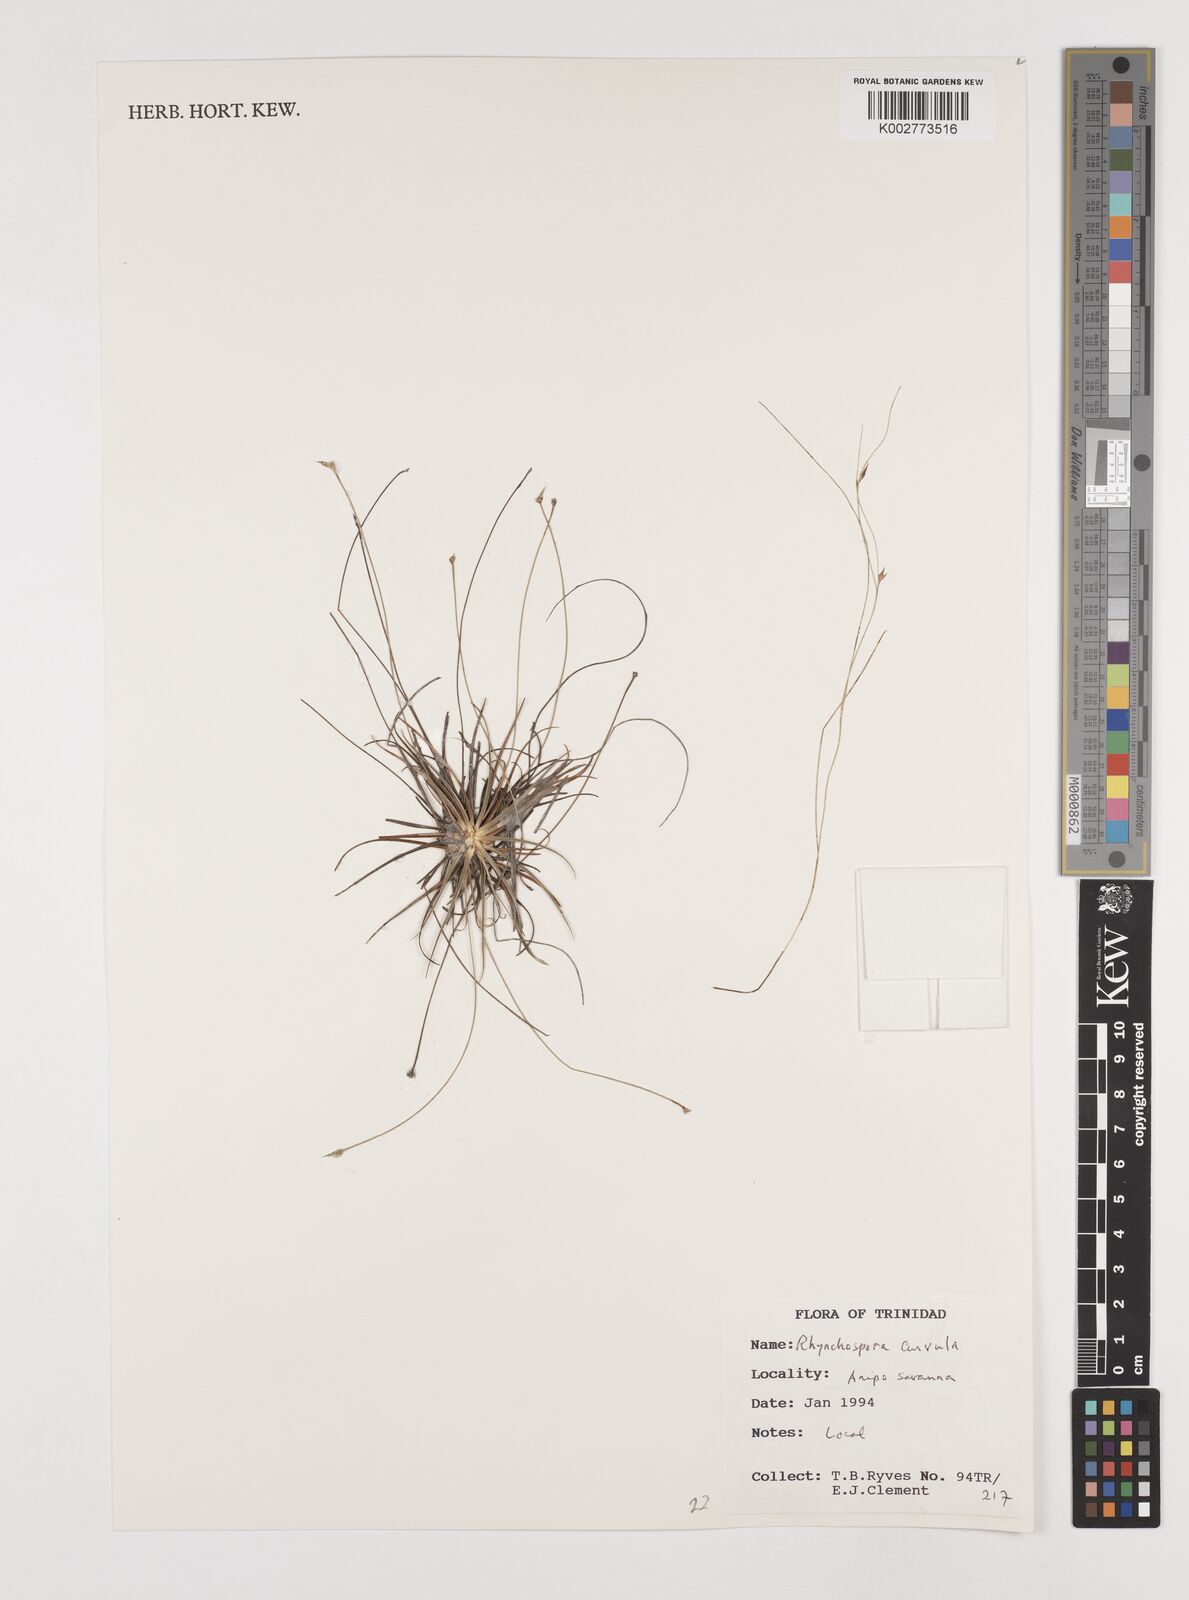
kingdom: Plantae
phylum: Tracheophyta
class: Liliopsida
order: Poales
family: Cyperaceae
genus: Rhynchospora
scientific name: Rhynchospora tenuis
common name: Quill beaksedge
